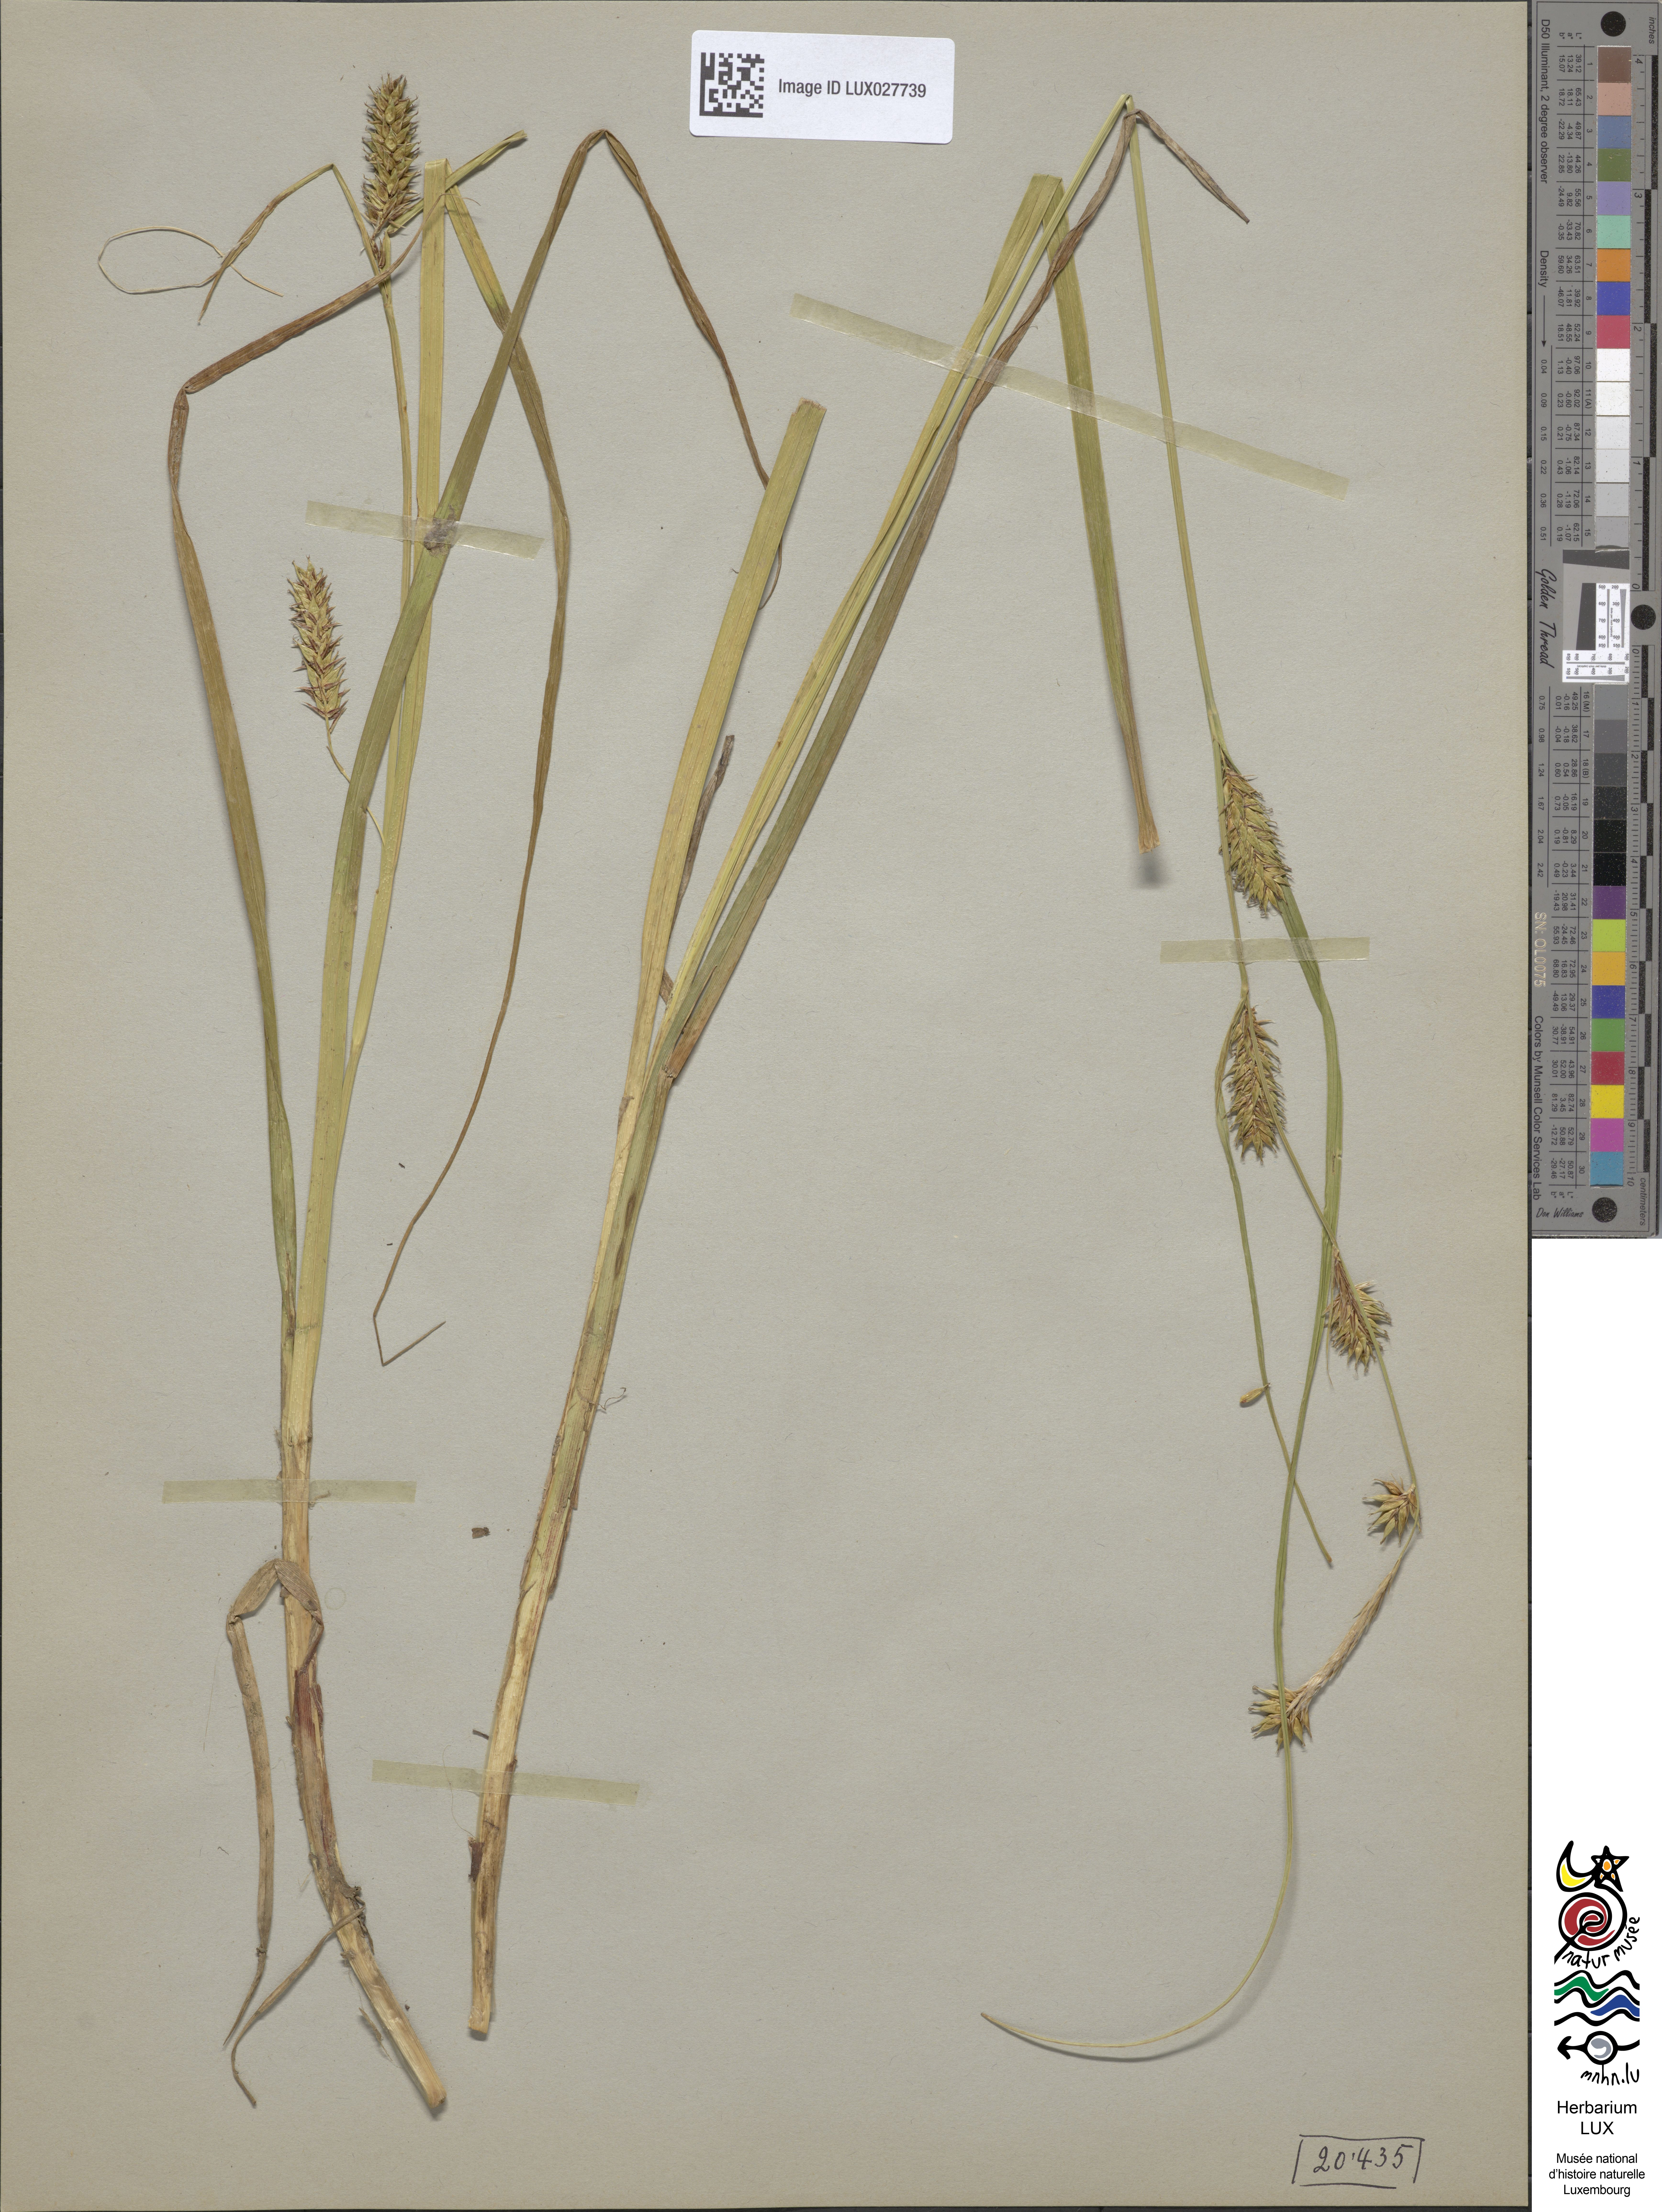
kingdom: Plantae
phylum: Tracheophyta
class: Liliopsida
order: Poales
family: Cyperaceae
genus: Carex
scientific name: Carex vesicaria
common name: Bladder-sedge
